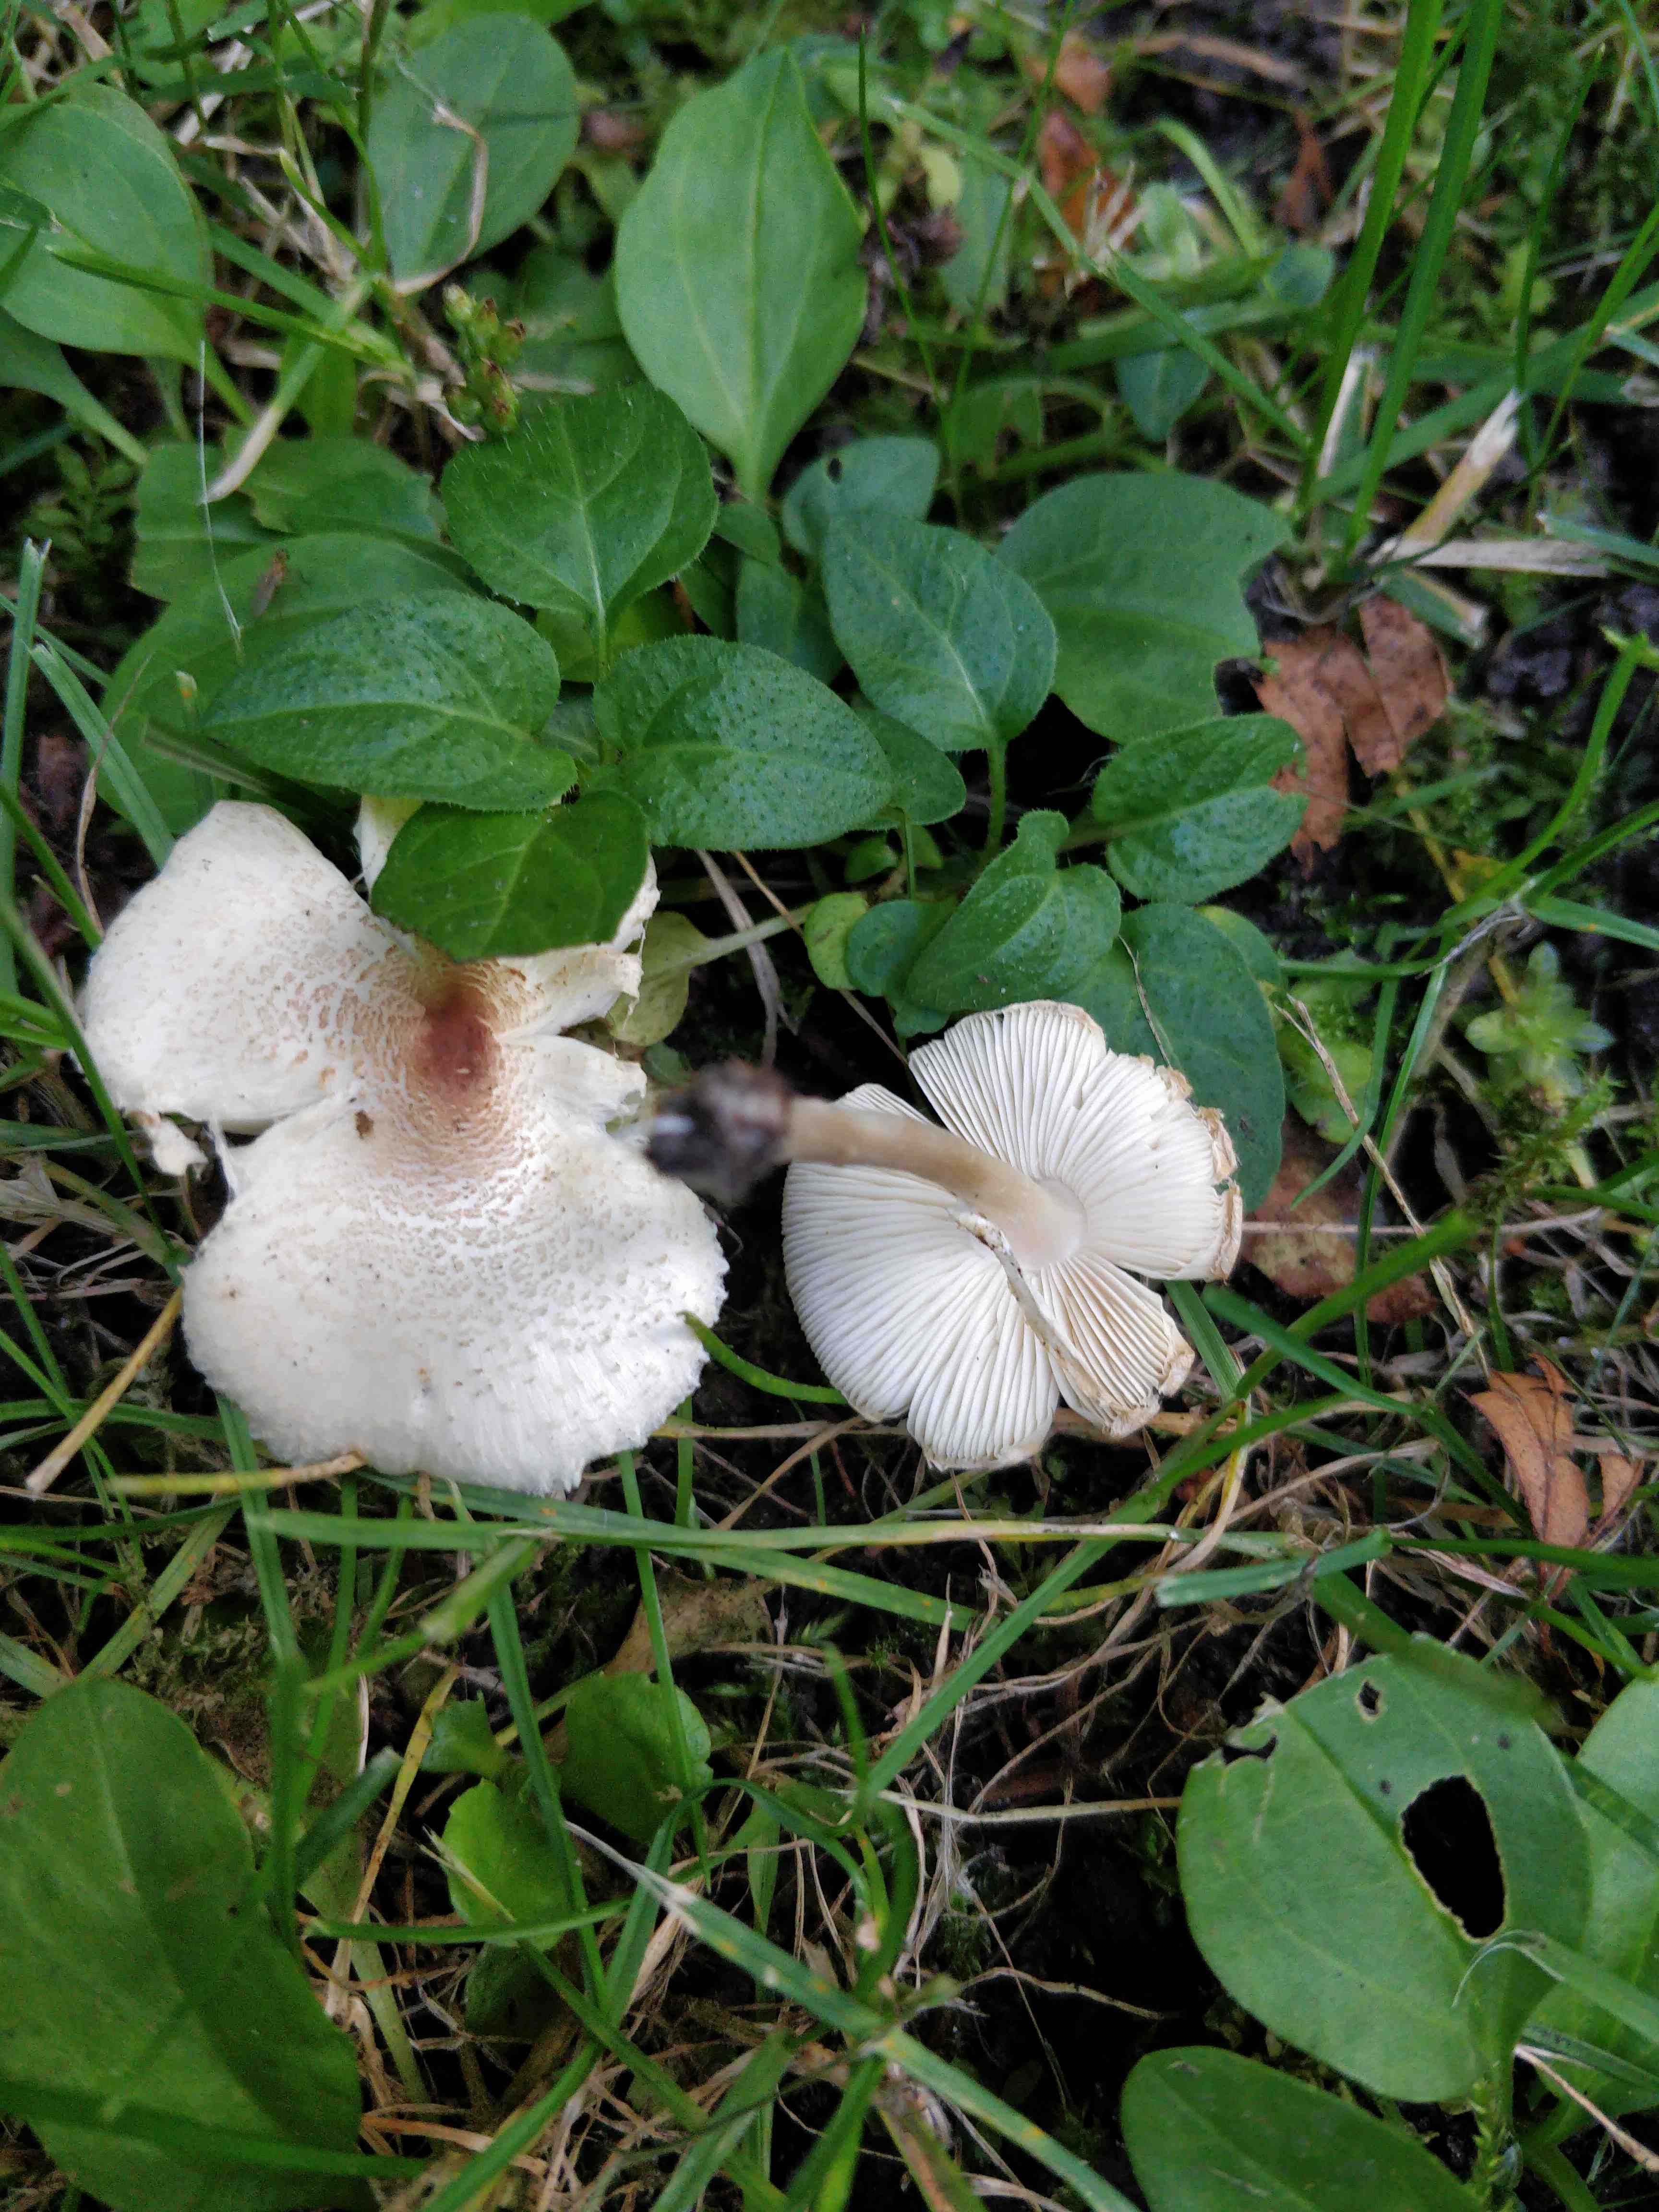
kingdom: Fungi
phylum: Basidiomycota
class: Agaricomycetes
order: Agaricales
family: Agaricaceae
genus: Lepiota
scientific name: Lepiota cristata
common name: stinkende parasolhat
